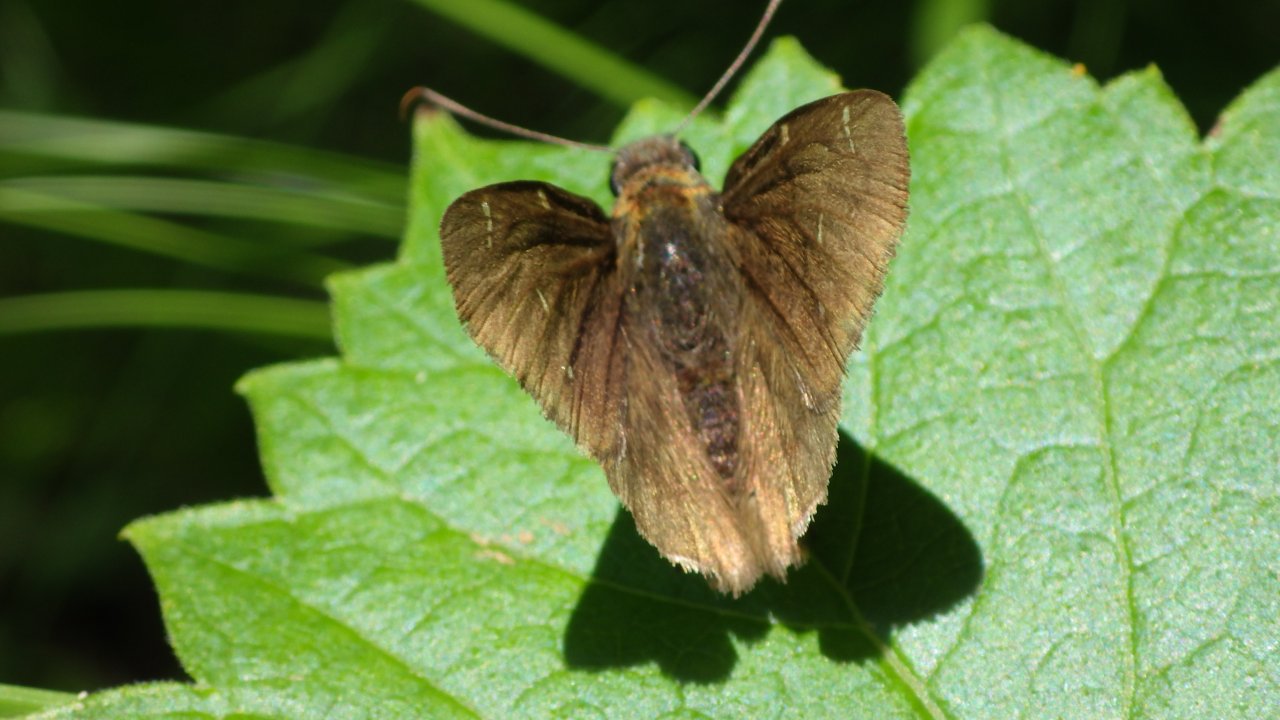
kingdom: Animalia
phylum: Arthropoda
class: Insecta
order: Lepidoptera
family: Hesperiidae
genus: Autochton
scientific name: Autochton
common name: Northern Cloudywing
